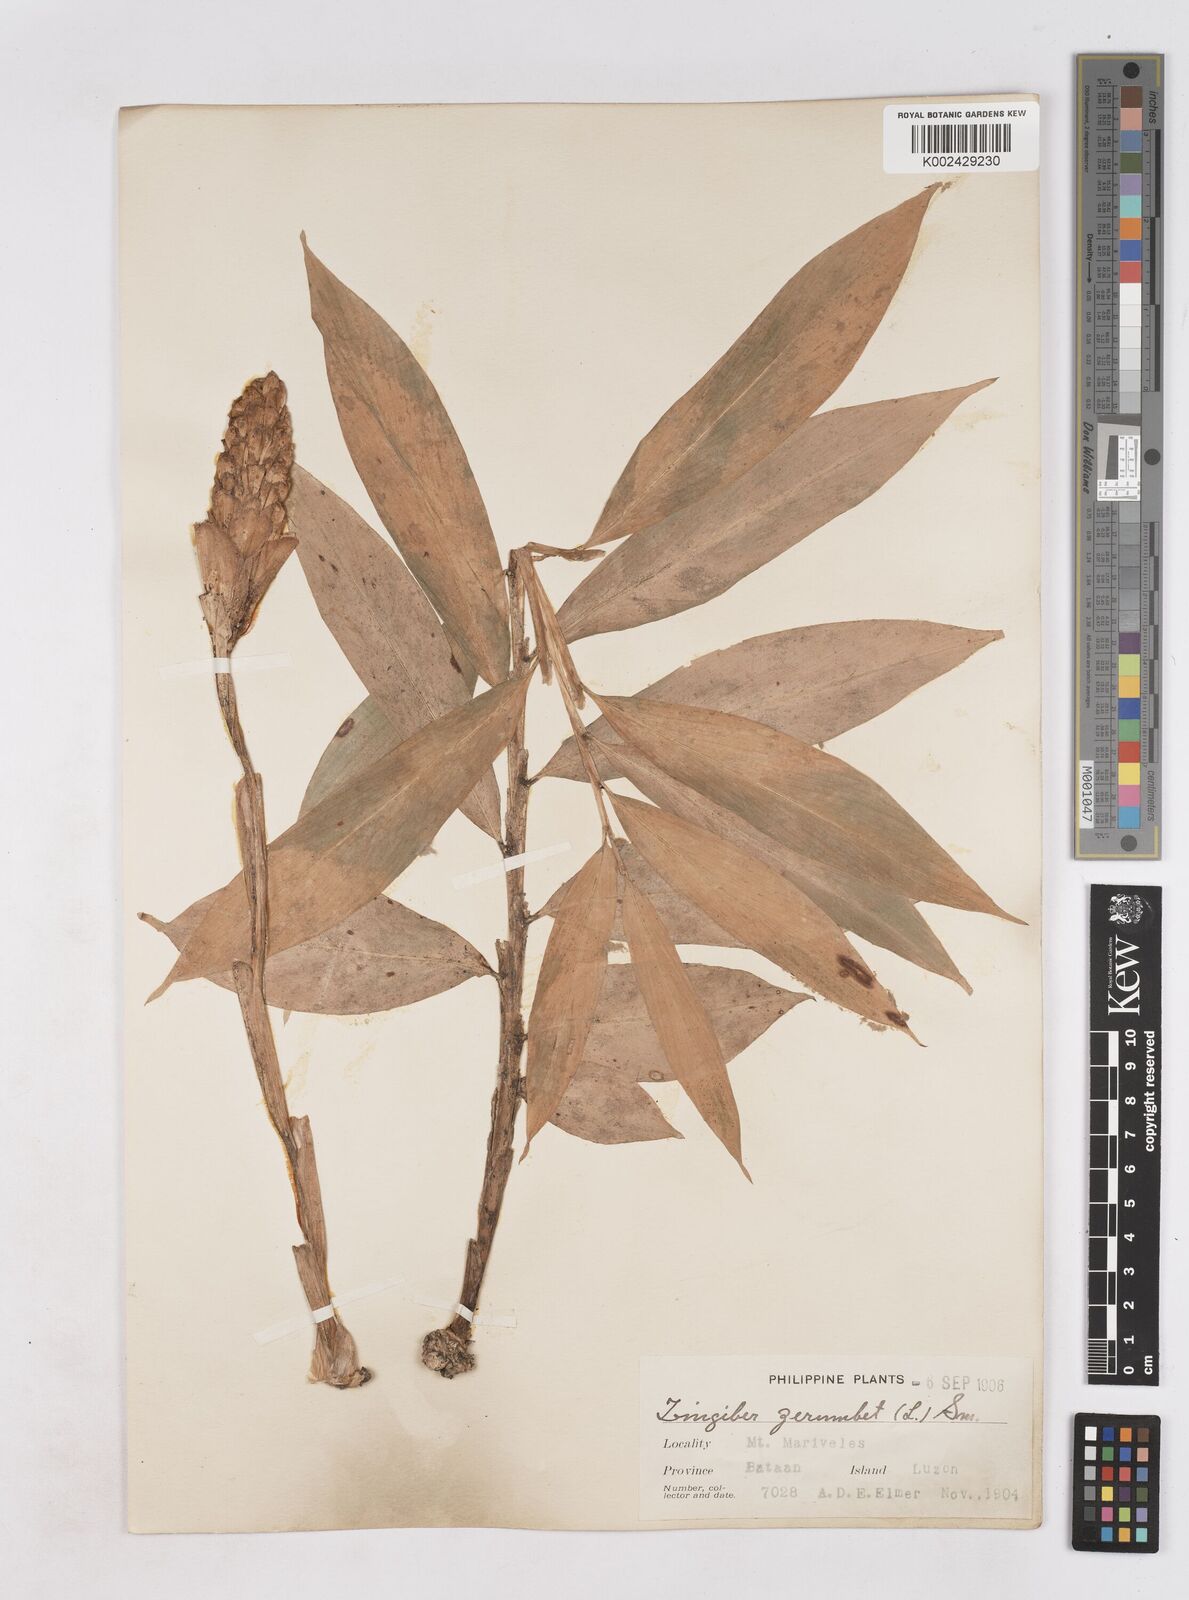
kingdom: Plantae
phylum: Tracheophyta
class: Liliopsida
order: Zingiberales
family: Zingiberaceae
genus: Zingiber
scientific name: Zingiber zerumbet
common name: Bitter ginger
